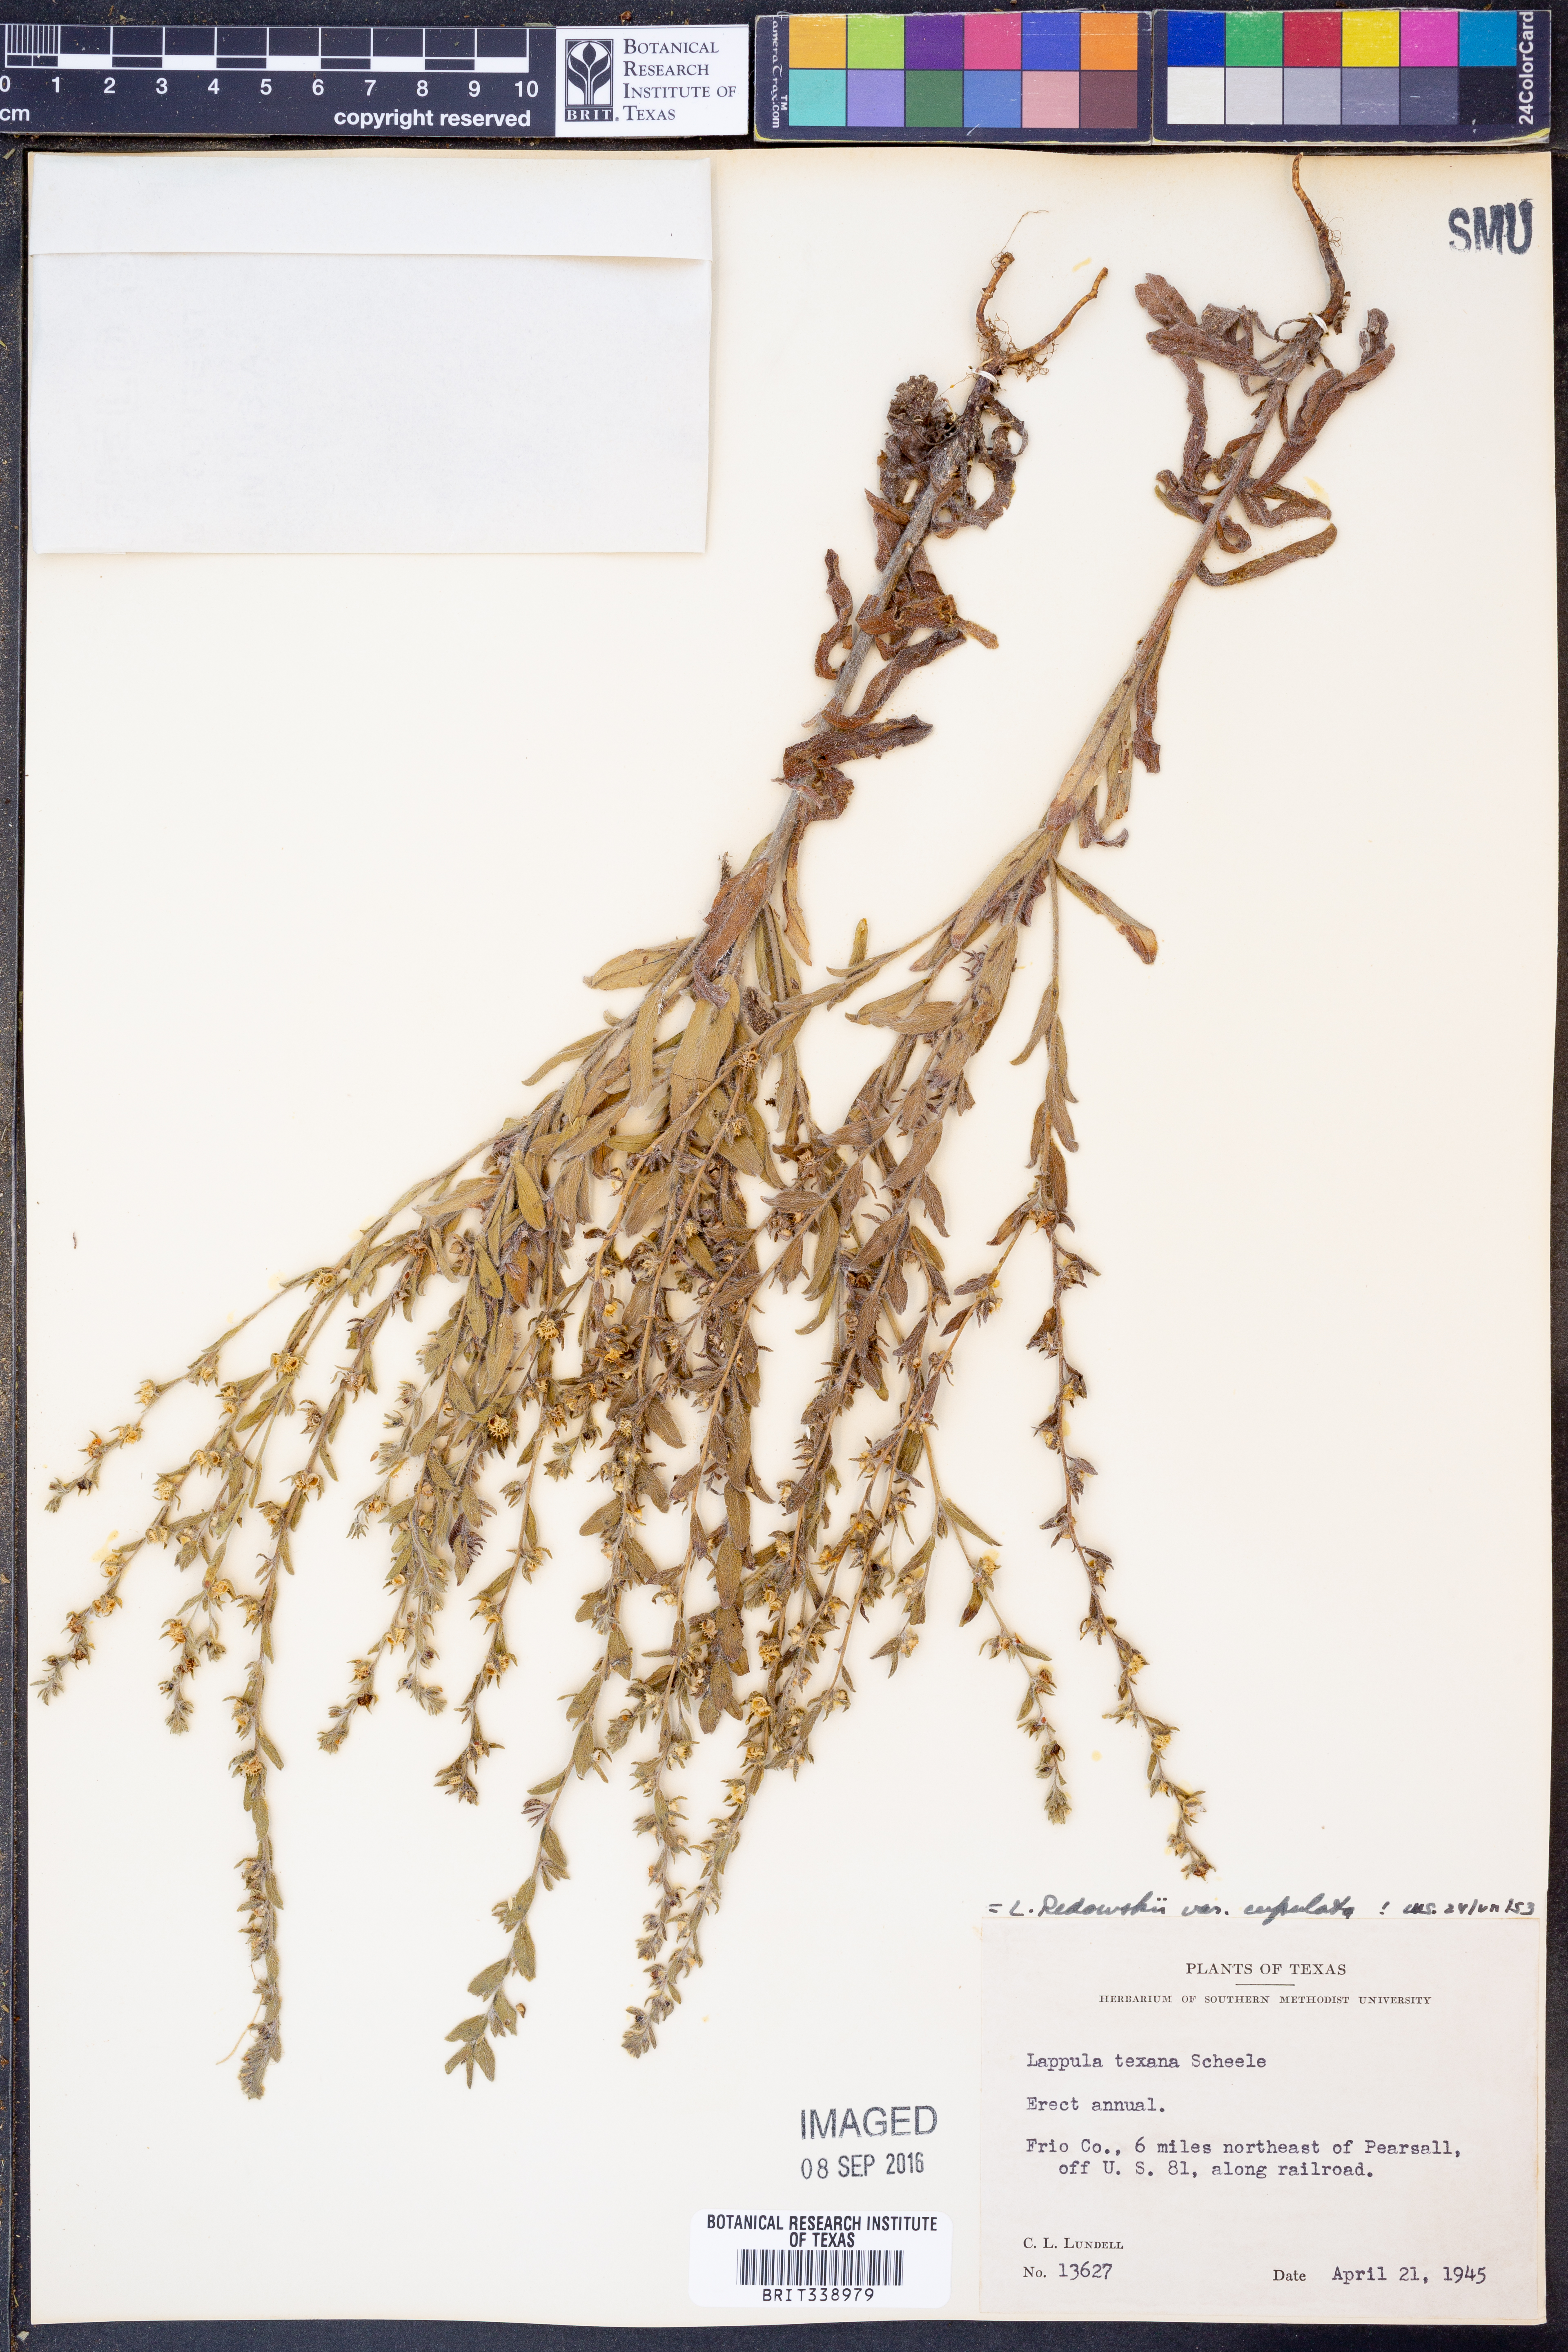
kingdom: Plantae
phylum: Tracheophyta
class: Magnoliopsida
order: Boraginales
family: Boraginaceae
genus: Lappula
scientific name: Lappula occidentalis
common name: Western stickseed
